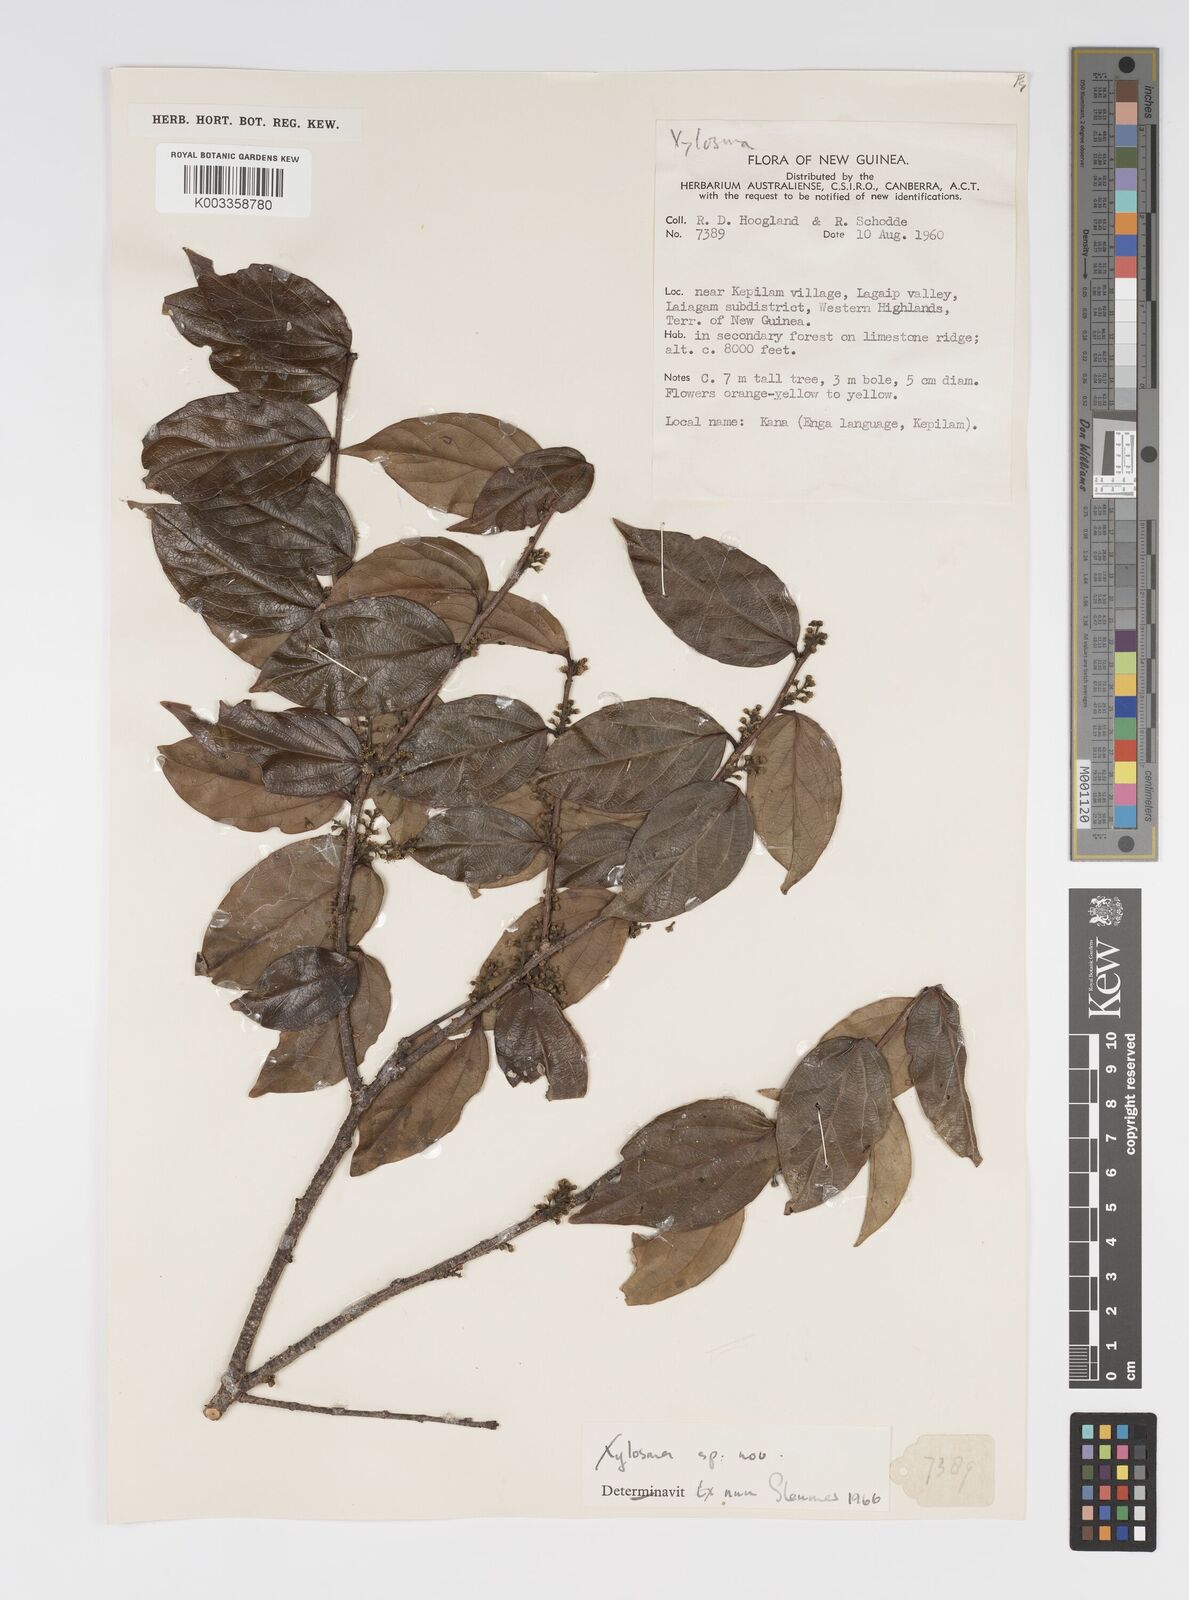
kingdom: Plantae
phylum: Tracheophyta
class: Magnoliopsida
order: Malpighiales
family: Salicaceae
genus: Xylosma
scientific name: Xylosma
